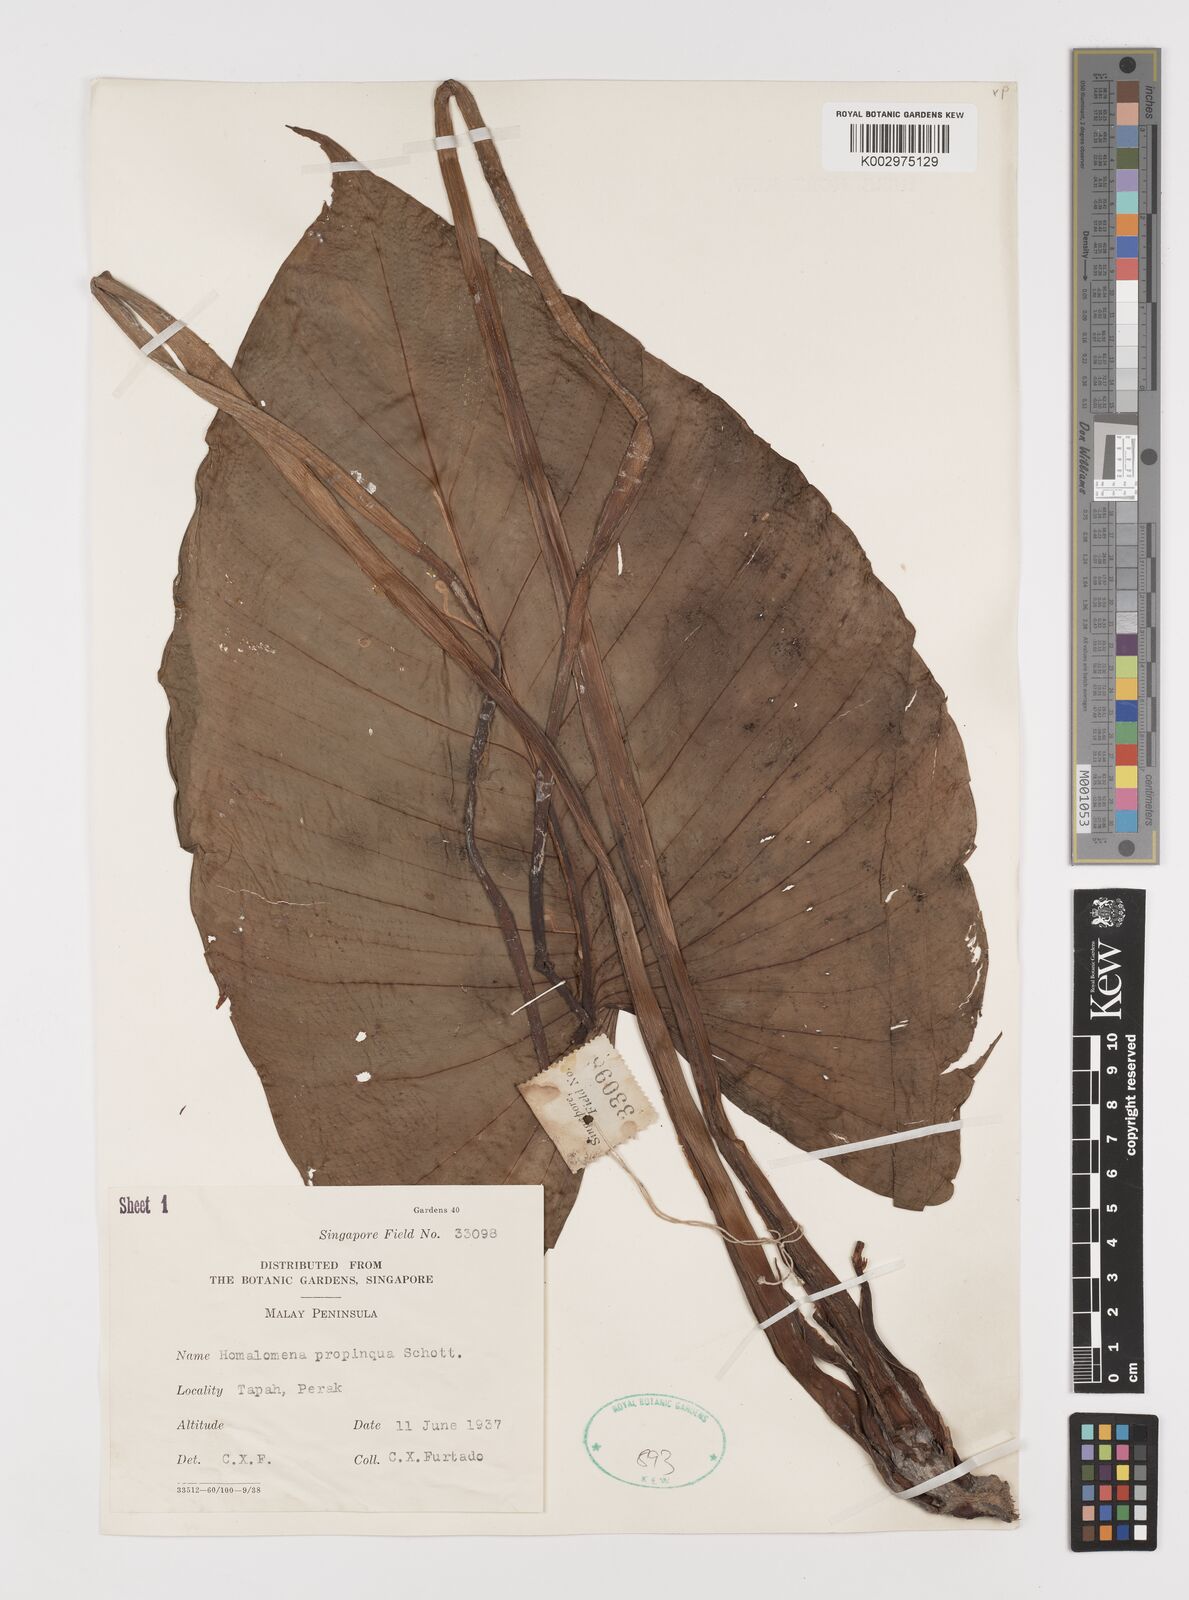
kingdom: Plantae
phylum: Tracheophyta
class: Liliopsida
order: Alismatales
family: Araceae
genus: Homalomena
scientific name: Homalomena humilis
